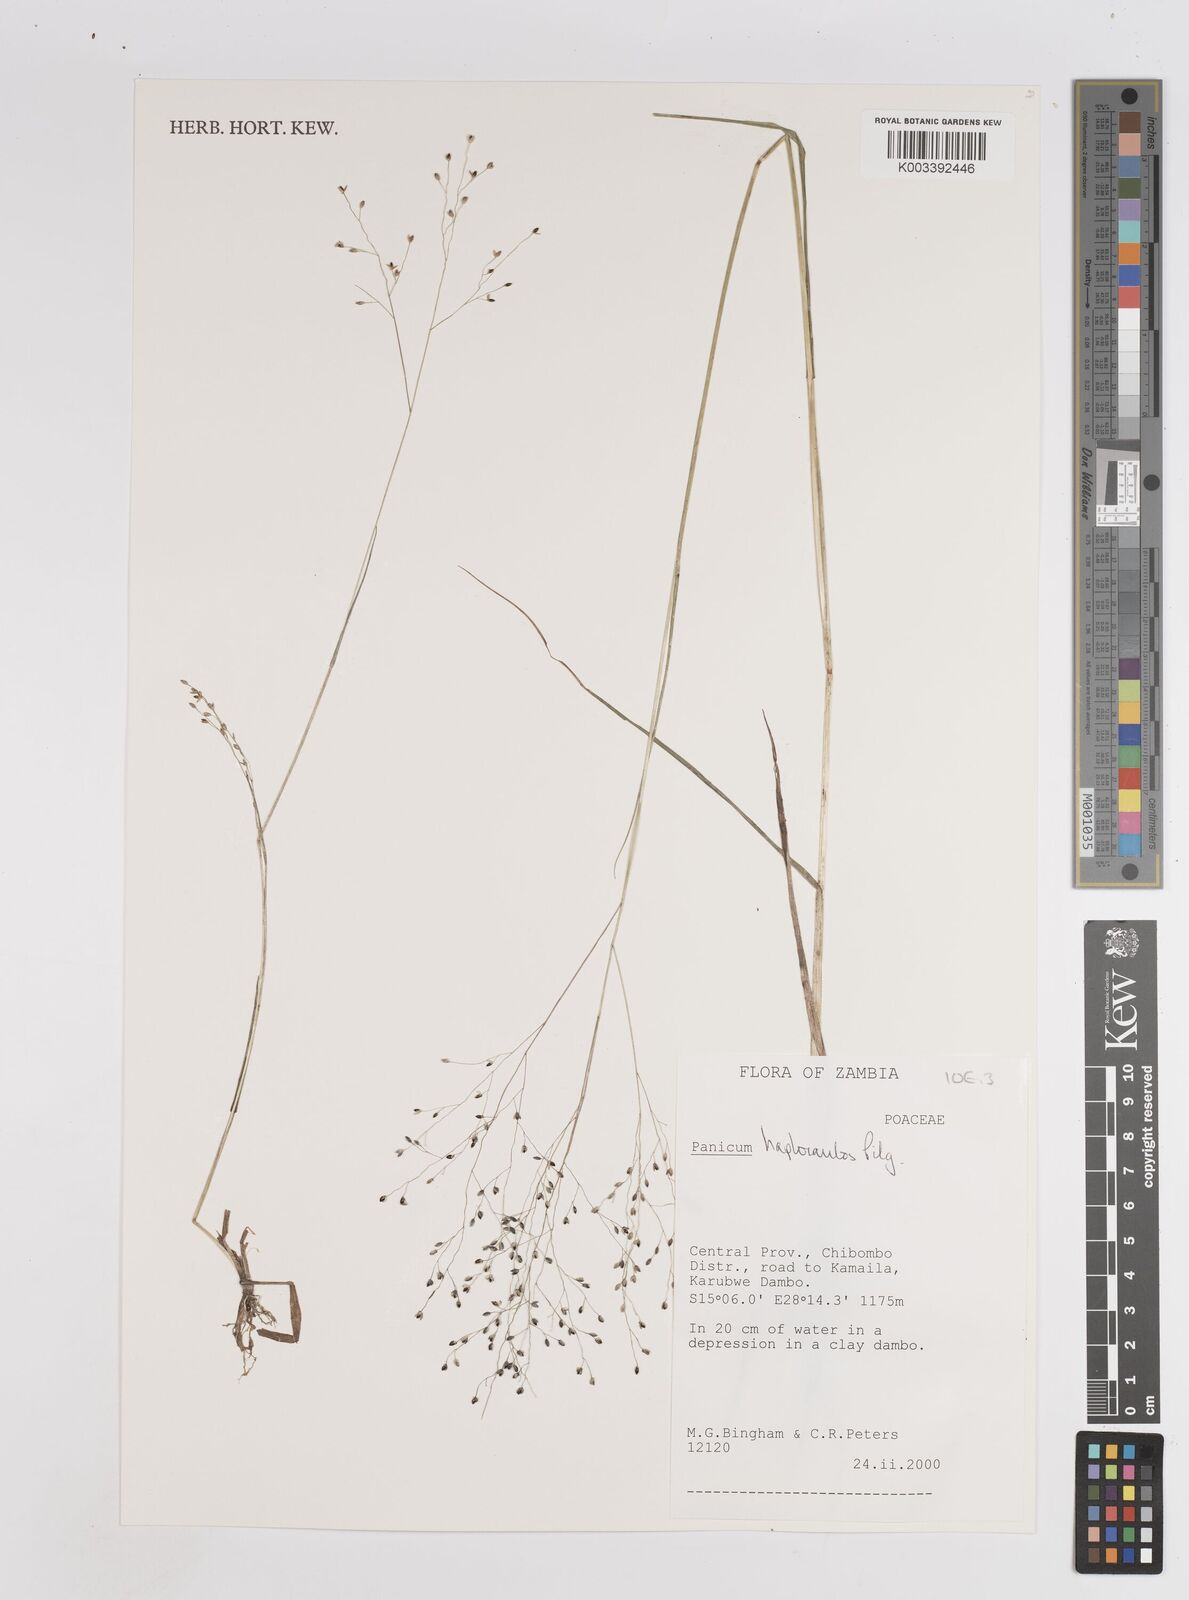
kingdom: Plantae
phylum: Tracheophyta
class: Liliopsida
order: Poales
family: Poaceae
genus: Panicum
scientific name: Panicum haplocaulos
